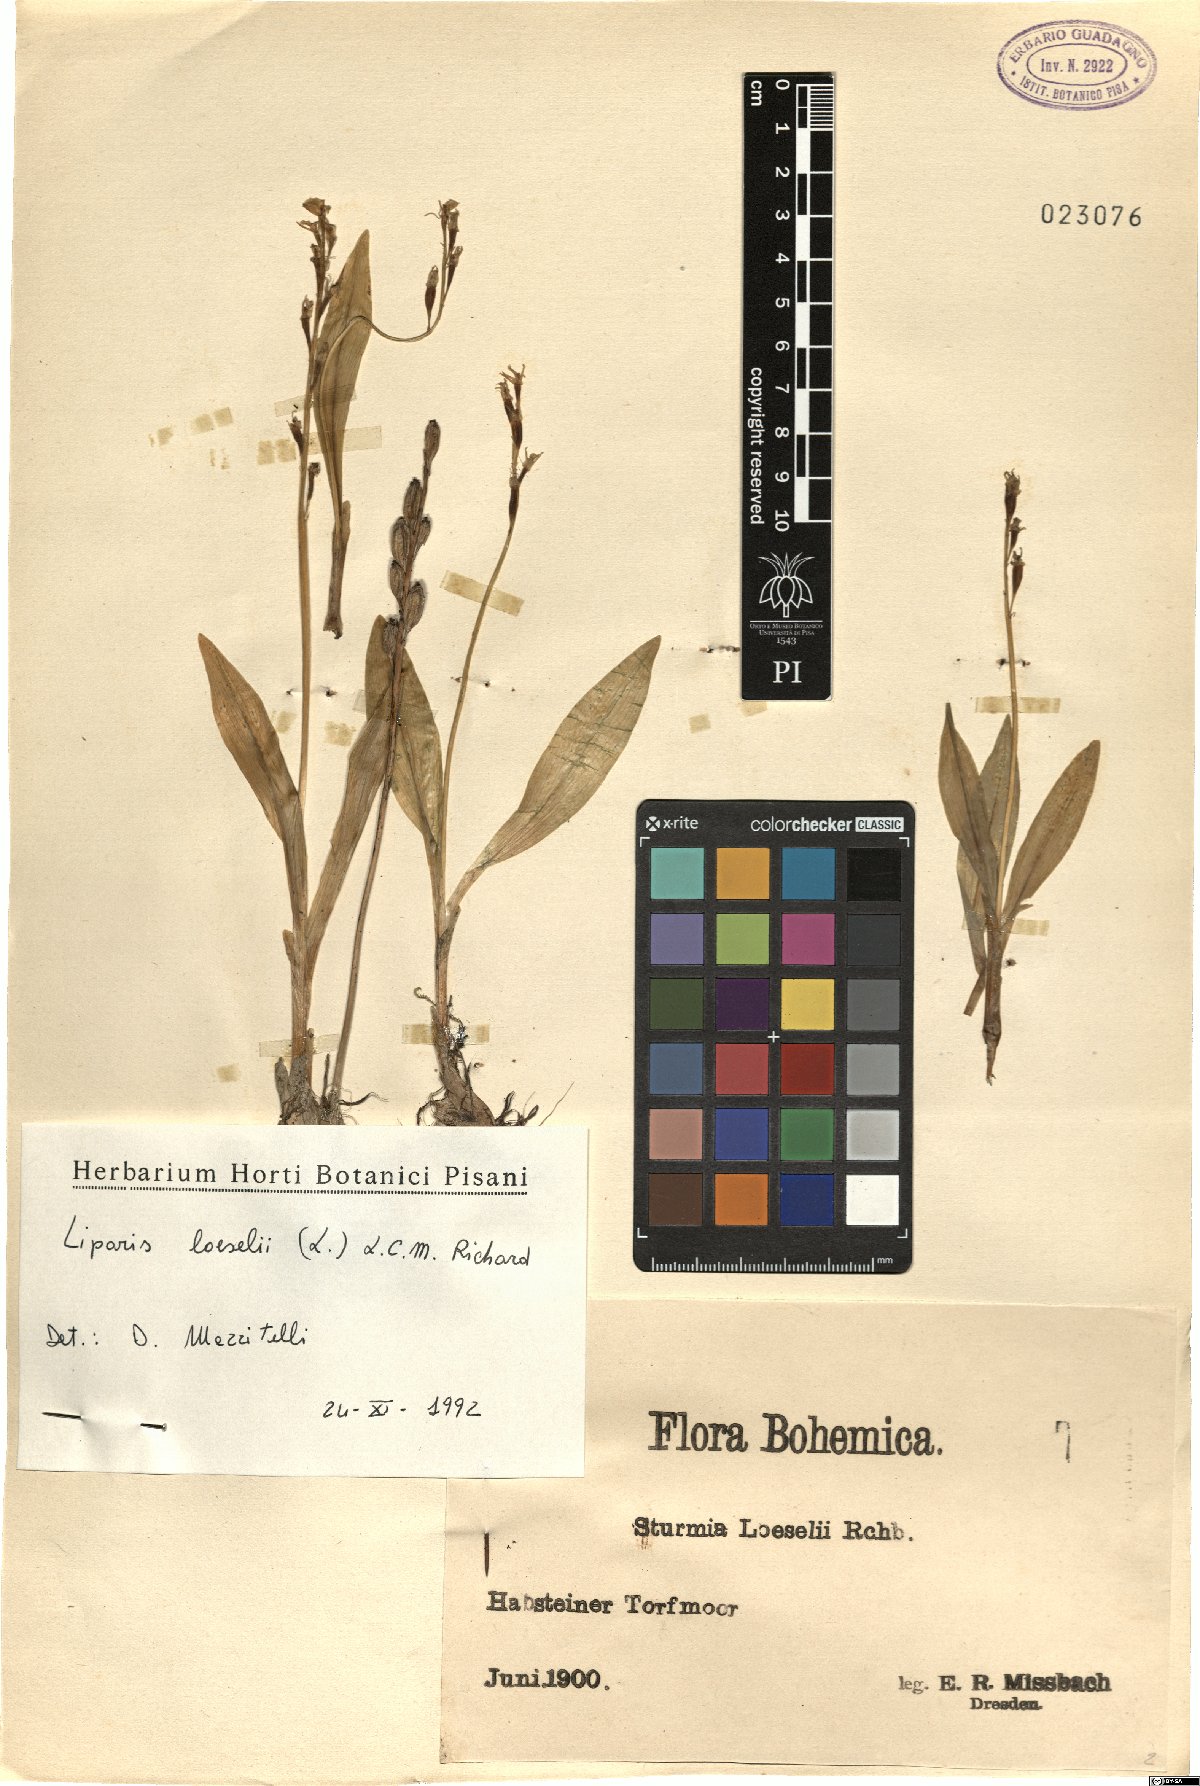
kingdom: Animalia
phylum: Arthropoda
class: Insecta
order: Coleoptera
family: Curculionidae
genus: Liparis
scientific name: Liparis loeselii
